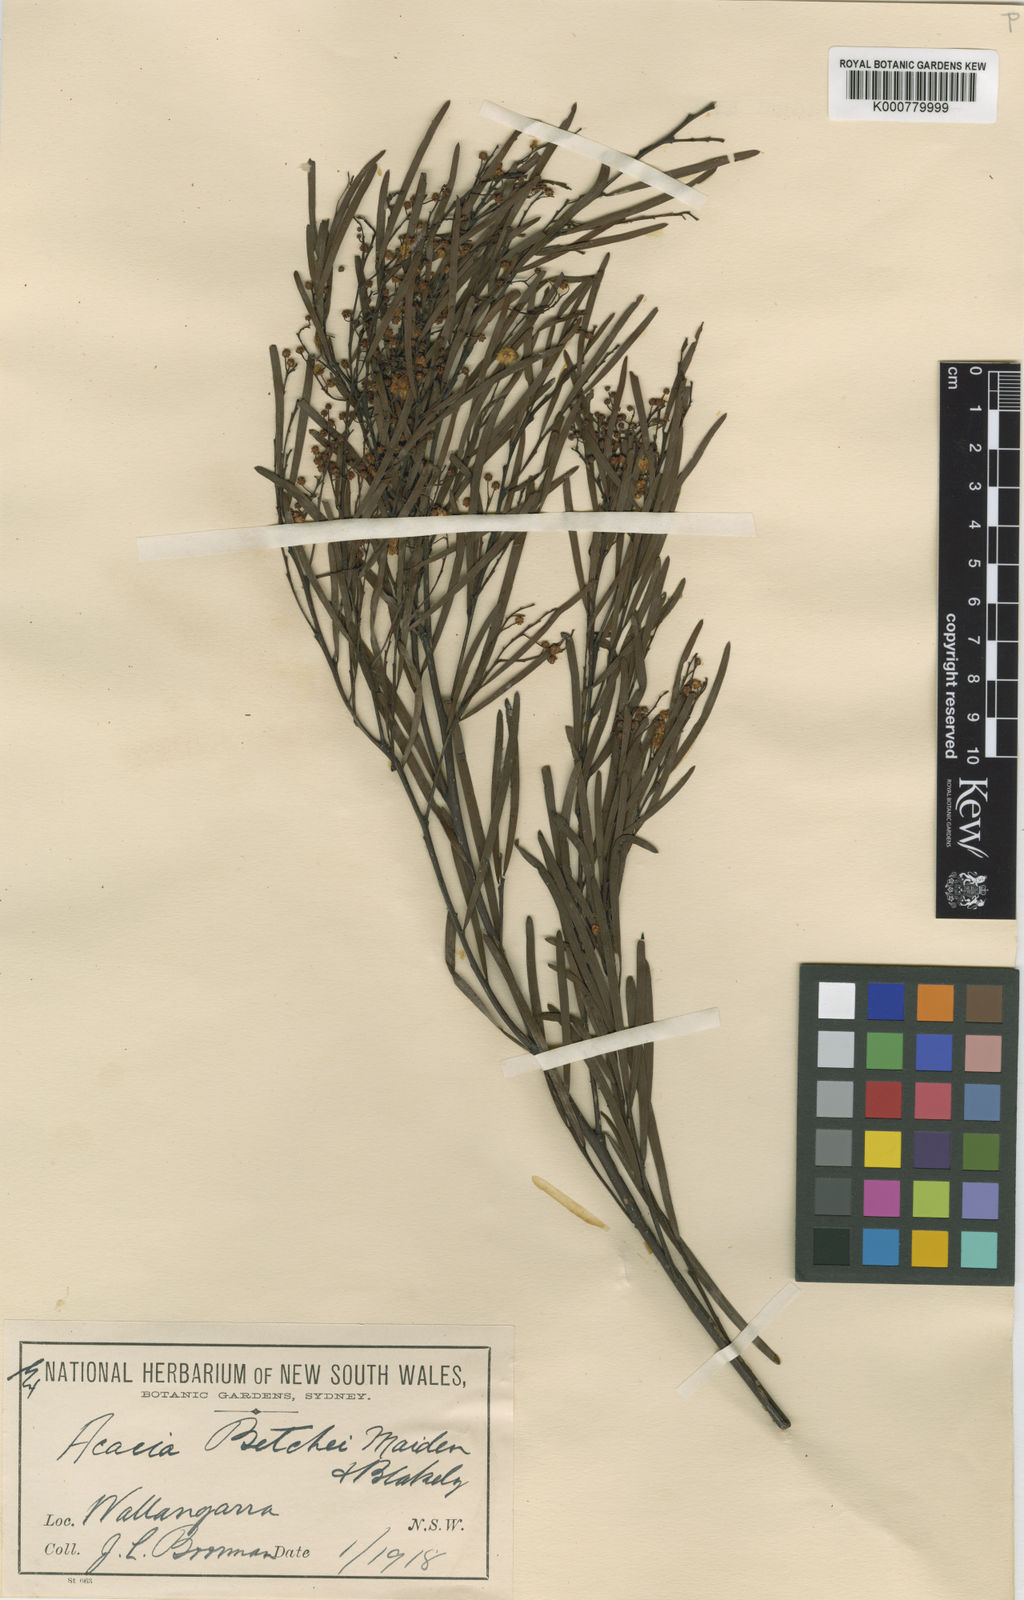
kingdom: Plantae
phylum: Tracheophyta
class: Magnoliopsida
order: Fabales
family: Fabaceae
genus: Acacia
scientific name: Acacia betchei
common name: Red-tip wattle
